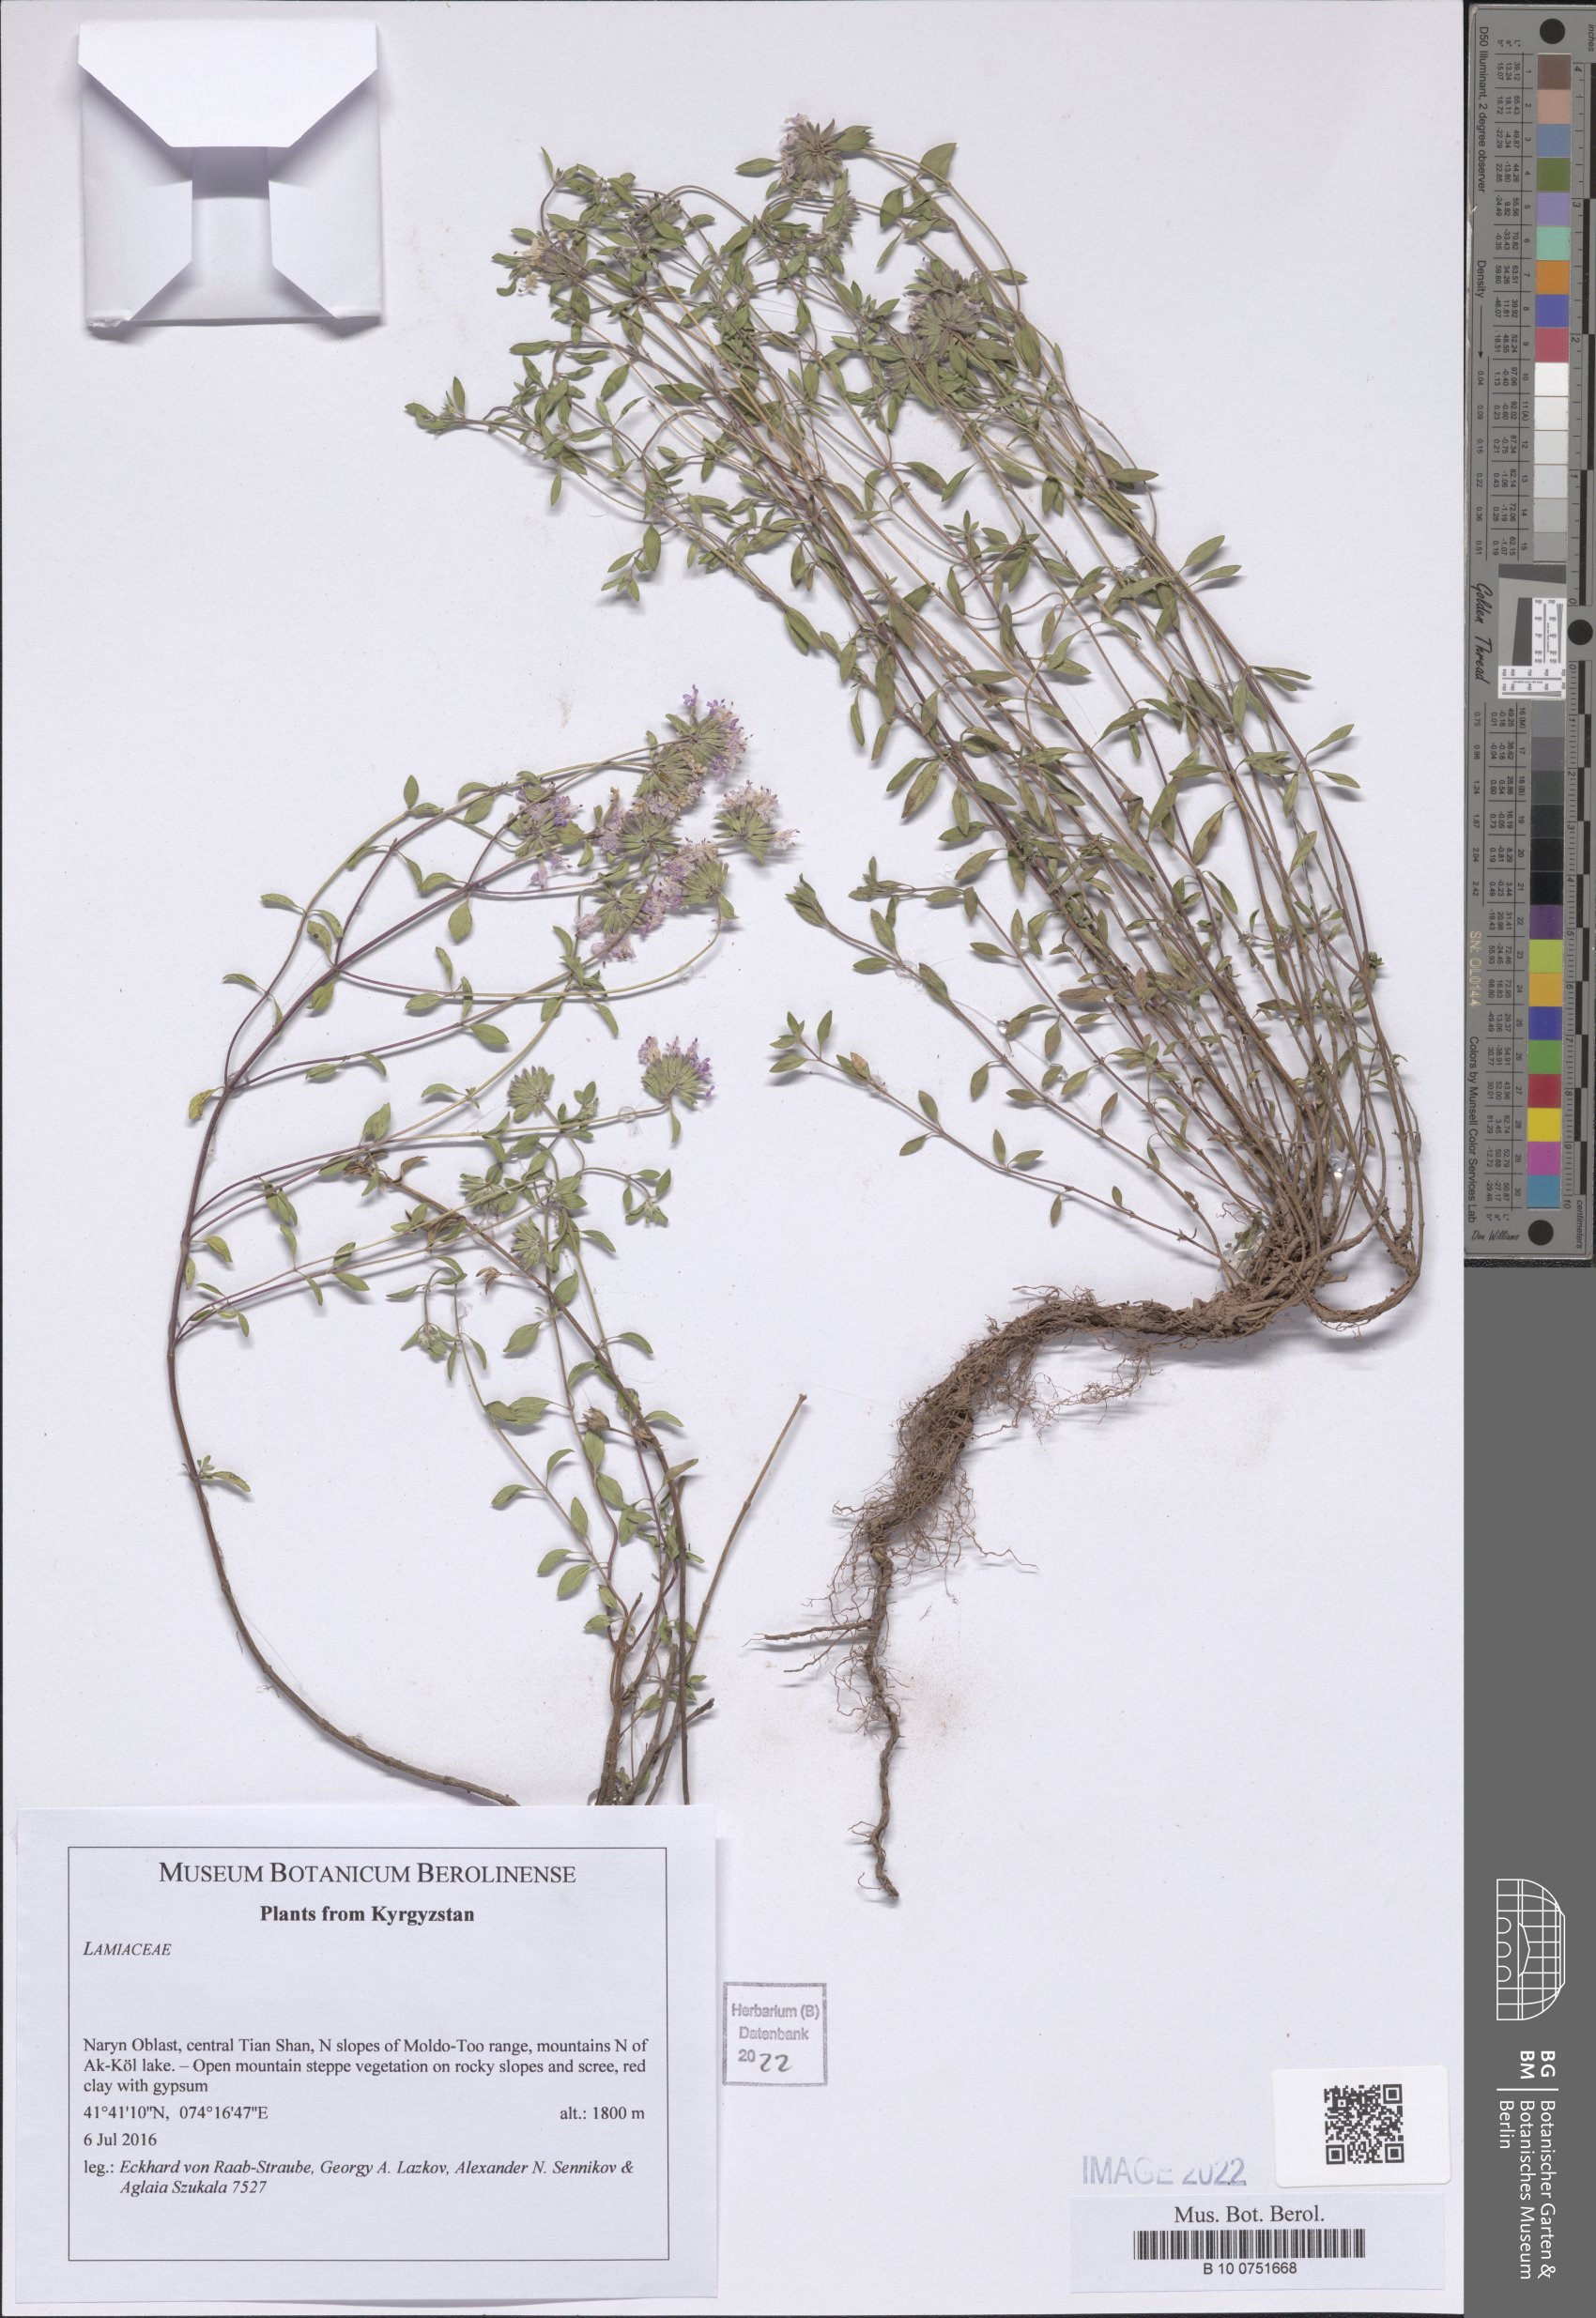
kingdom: Plantae
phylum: Tracheophyta
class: Magnoliopsida
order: Lamiales
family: Lamiaceae
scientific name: Lamiaceae
